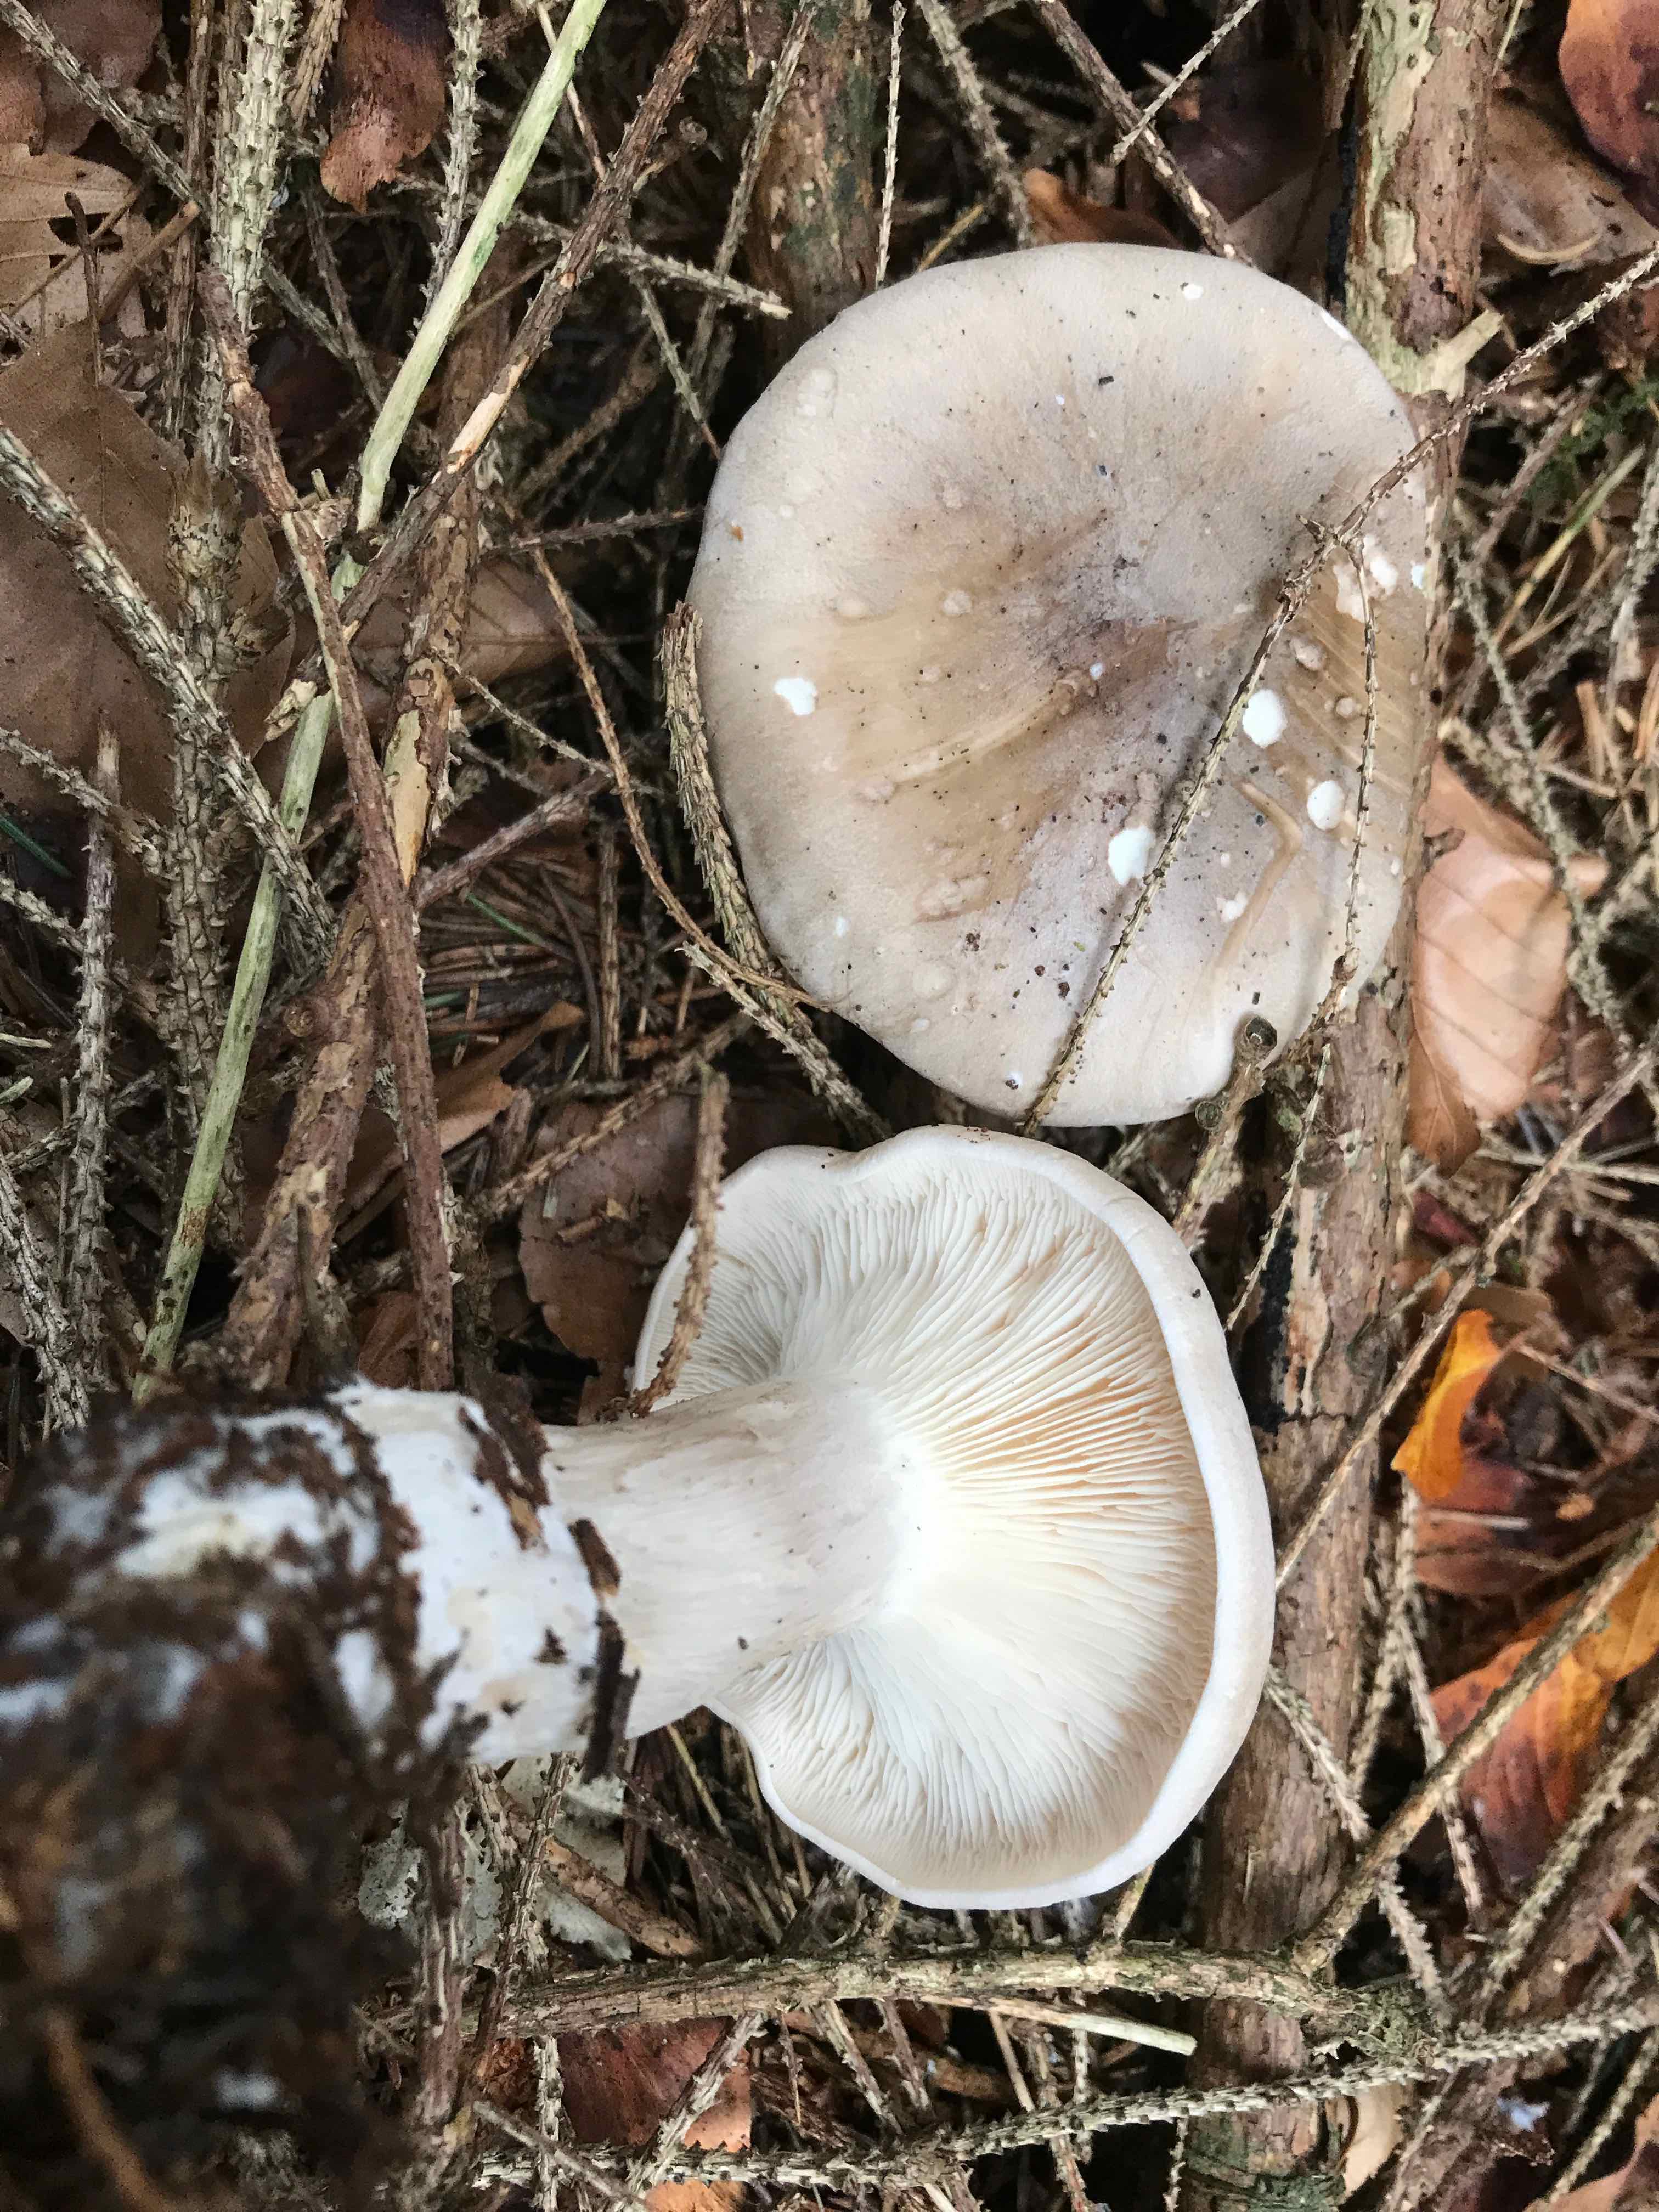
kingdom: Fungi
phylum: Basidiomycota
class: Agaricomycetes
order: Agaricales
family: Tricholomataceae
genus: Clitocybe
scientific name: Clitocybe nebularis
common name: tåge-tragthat
